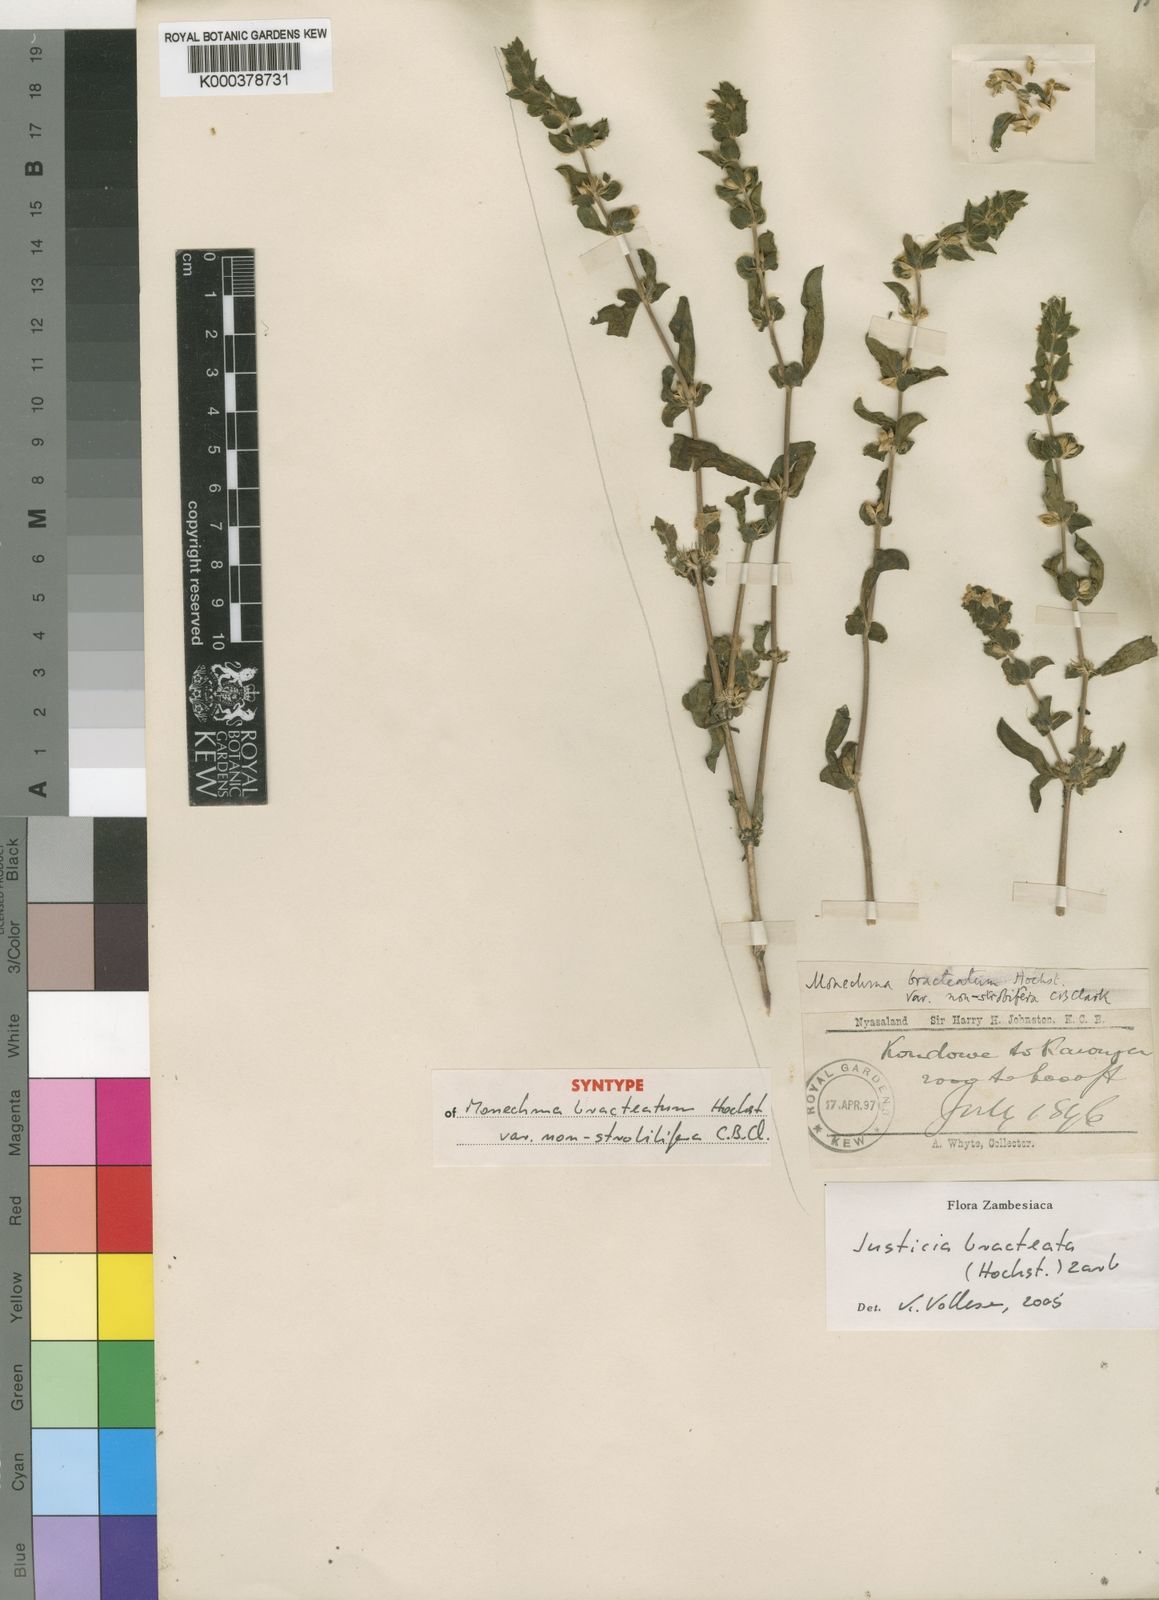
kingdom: Plantae
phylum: Tracheophyta
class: Magnoliopsida
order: Lamiales
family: Acanthaceae
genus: Monechma
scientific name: Monechma bracteatum
